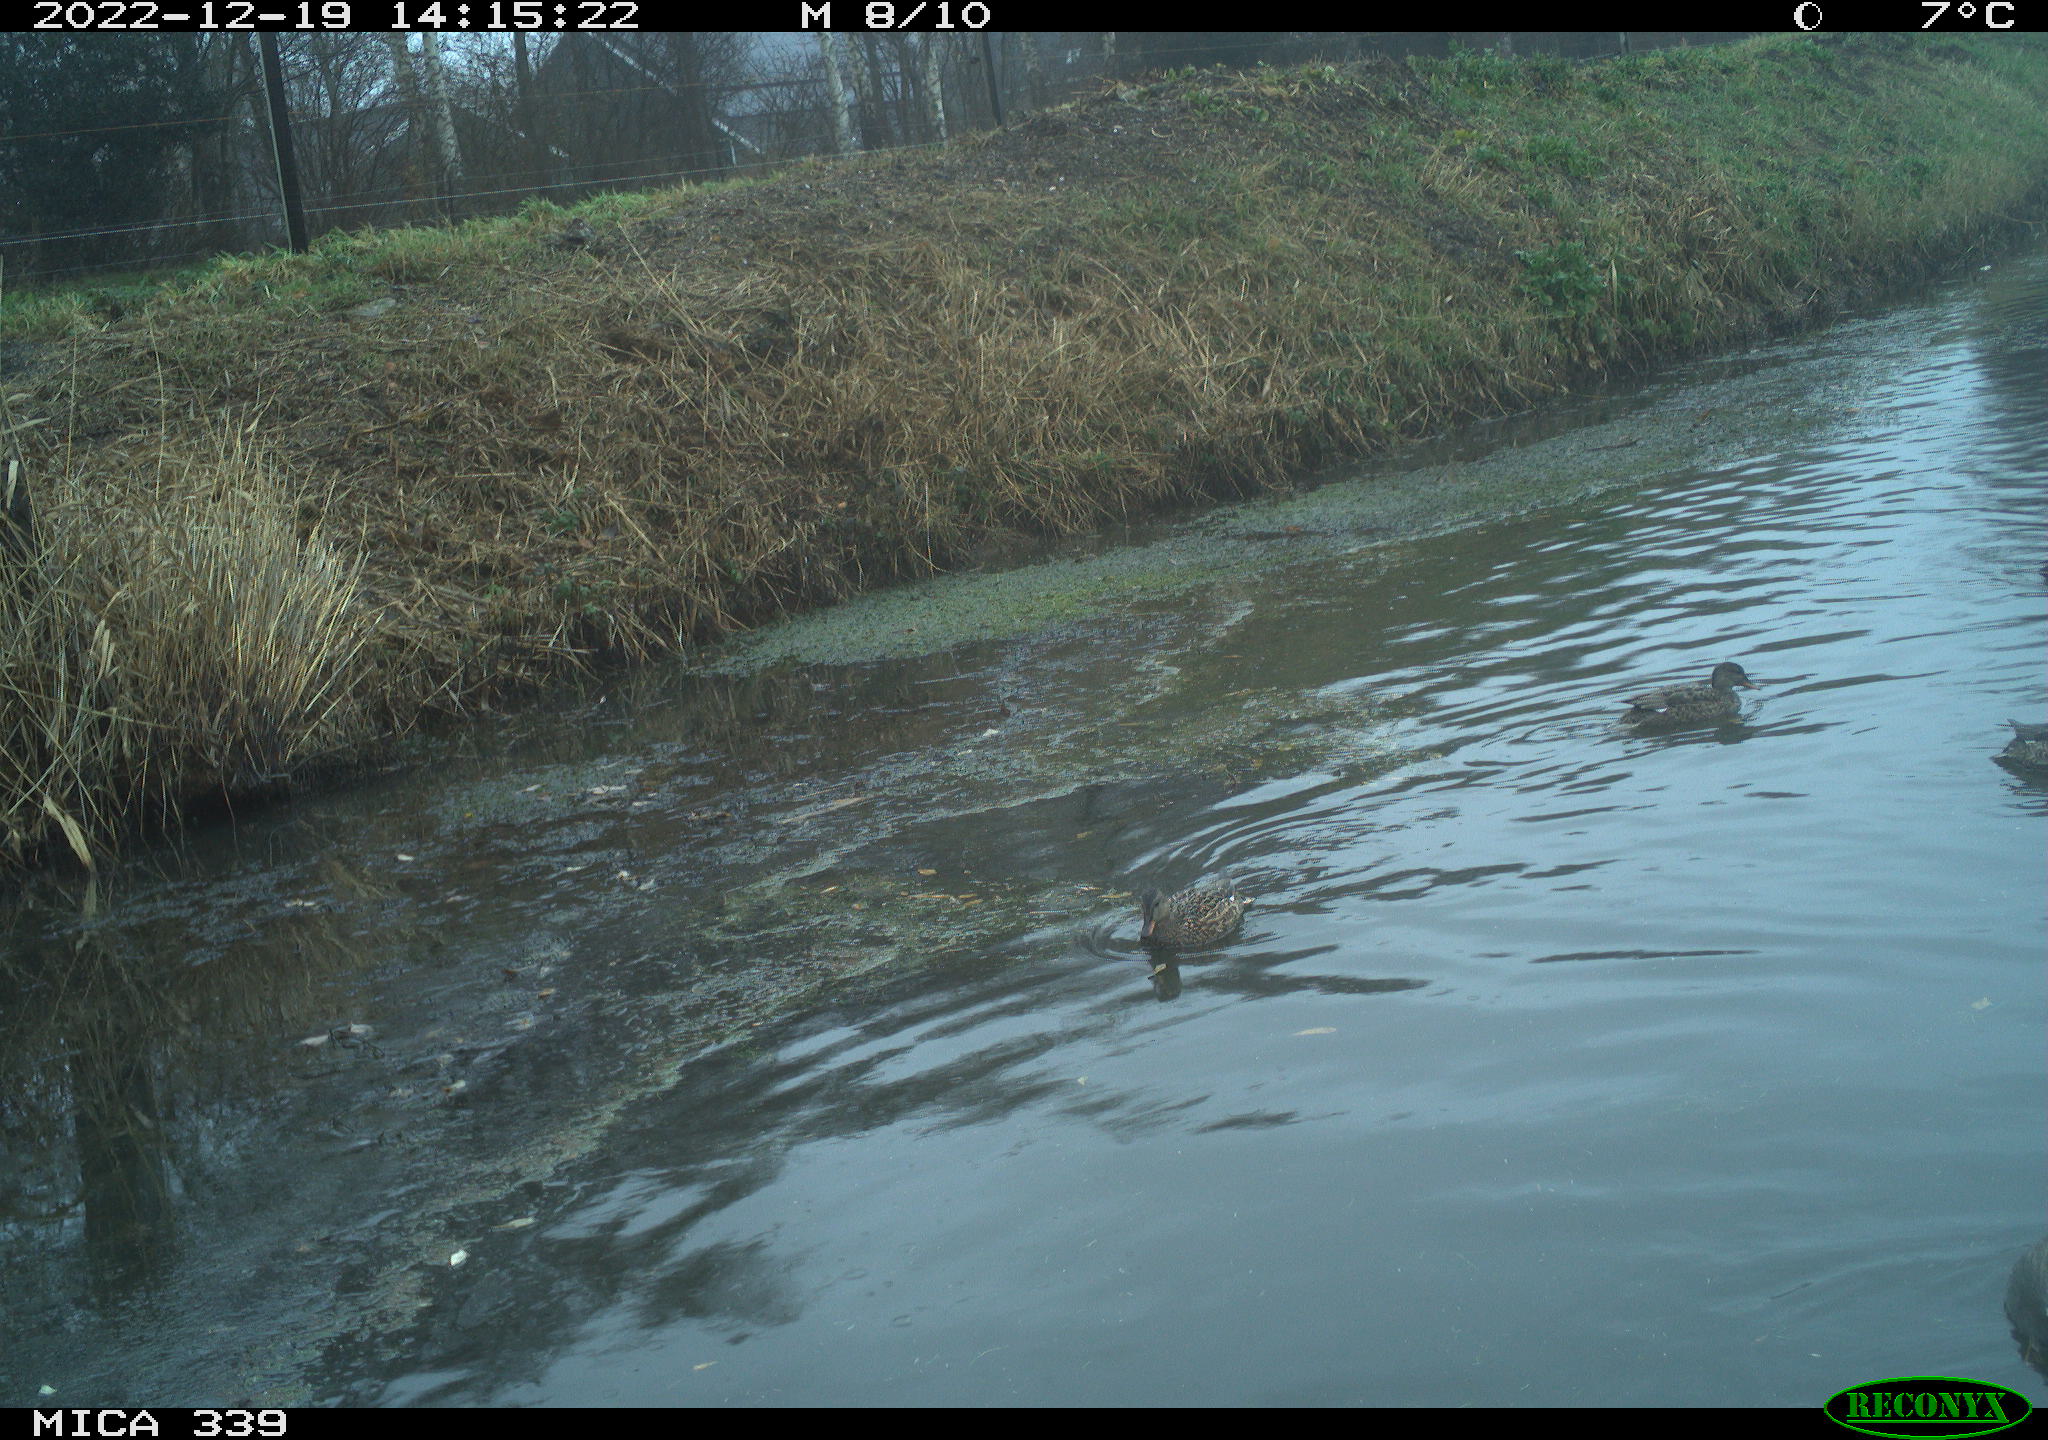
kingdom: Animalia
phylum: Chordata
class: Aves
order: Anseriformes
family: Anatidae
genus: Anas
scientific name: Anas
